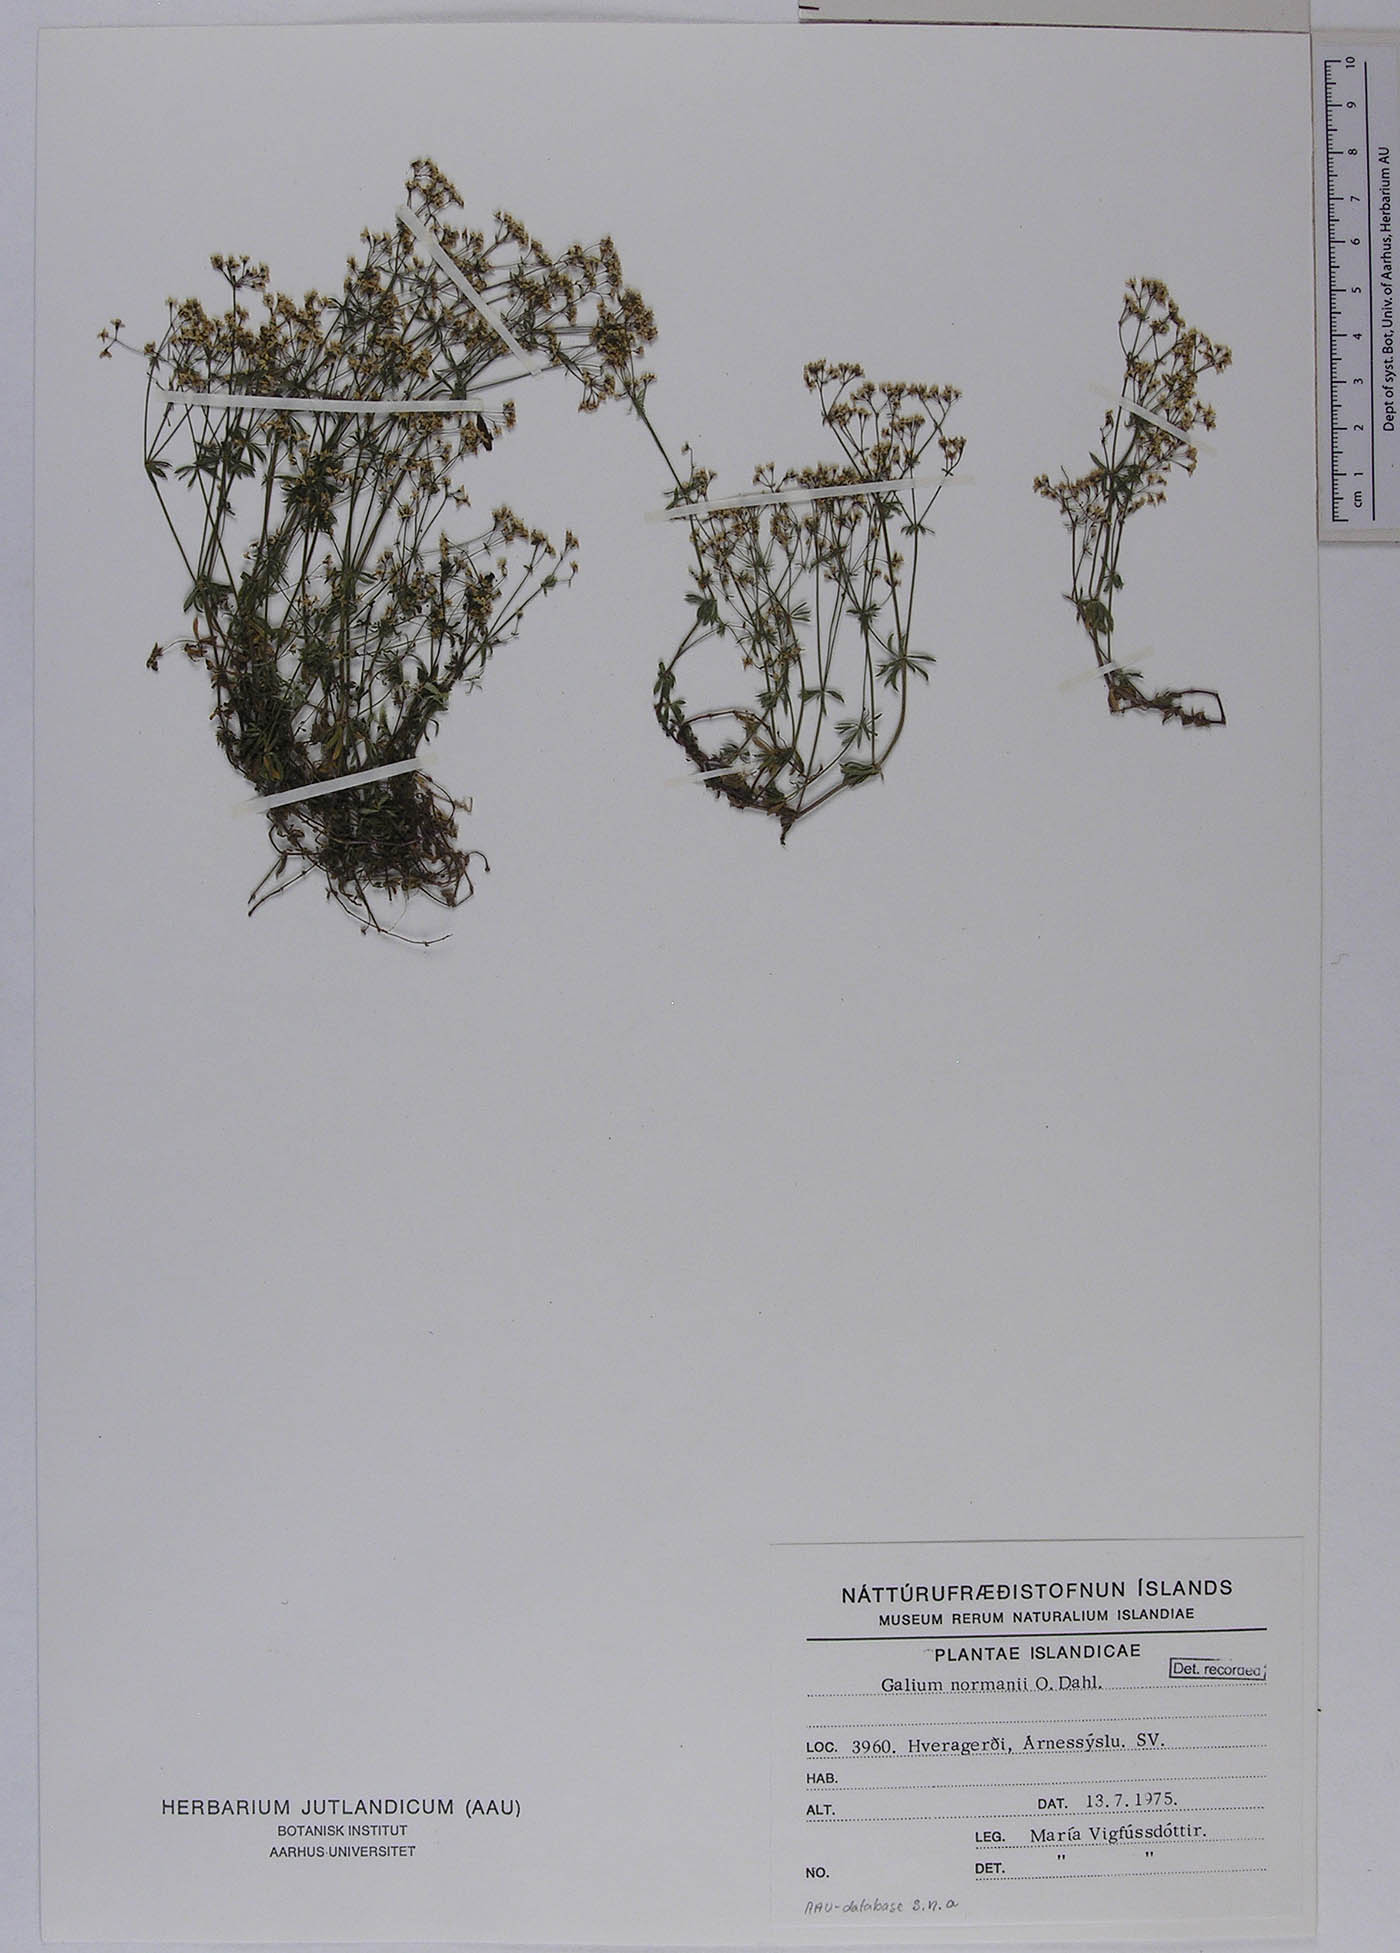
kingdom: Plantae
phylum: Tracheophyta
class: Magnoliopsida
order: Gentianales
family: Rubiaceae
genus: Galium
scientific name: Galium normanii
